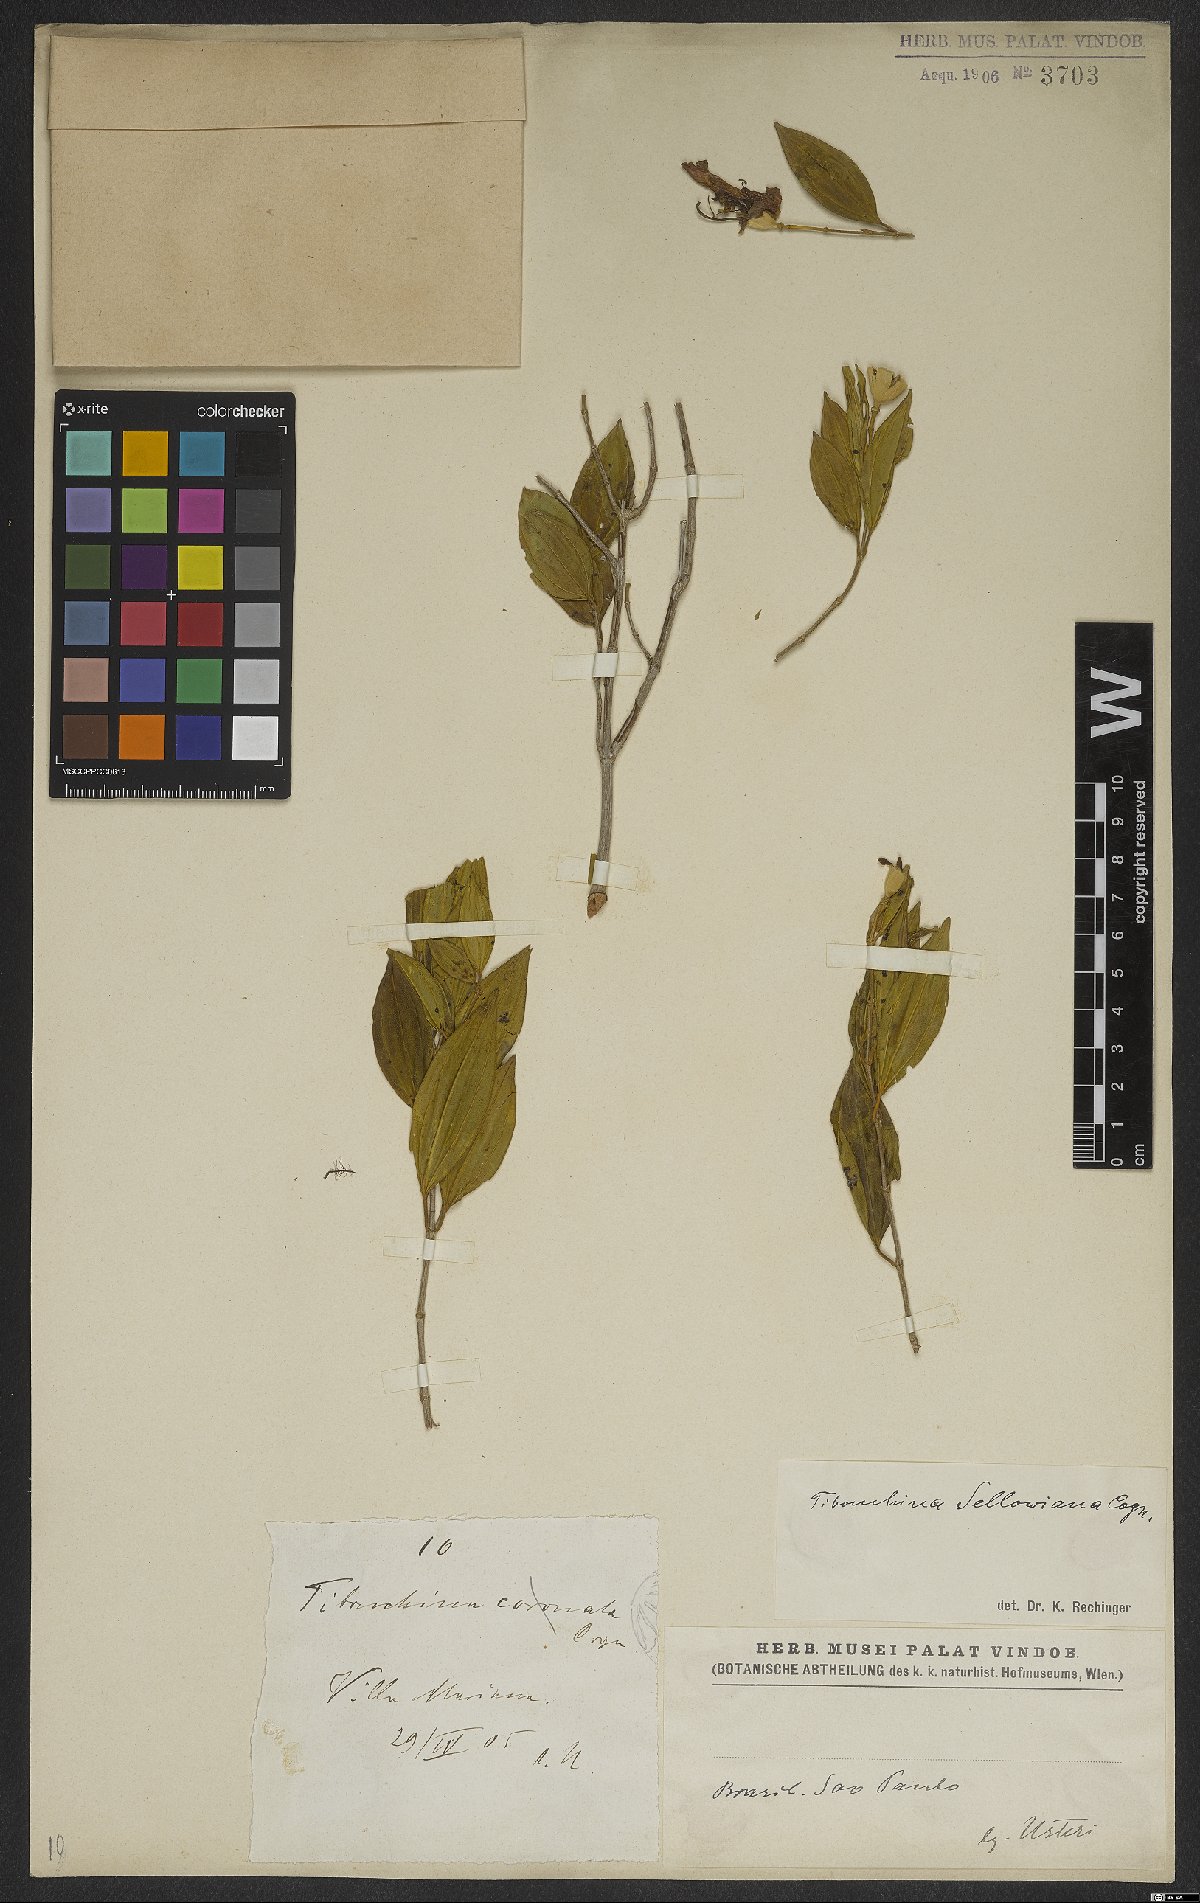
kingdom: Plantae
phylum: Tracheophyta
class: Magnoliopsida
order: Myrtales
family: Melastomataceae
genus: Pleroma
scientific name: Pleroma sellowianum
